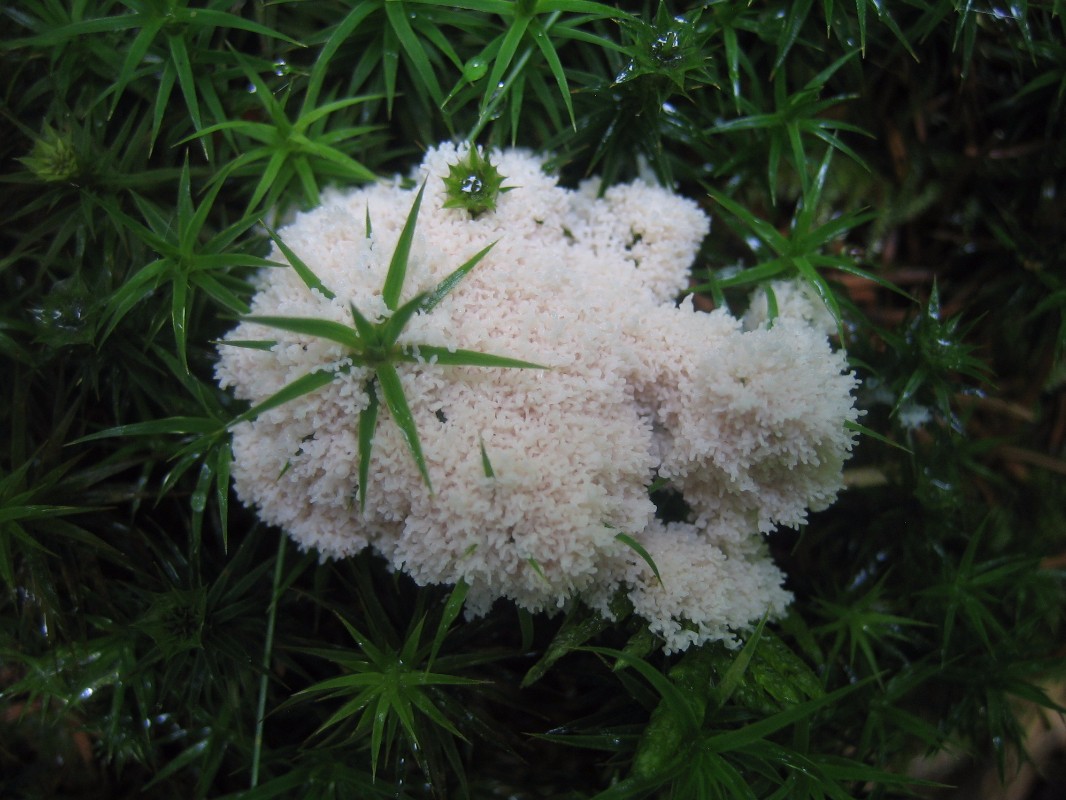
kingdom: Protozoa
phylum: Mycetozoa
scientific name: Mycetozoa
